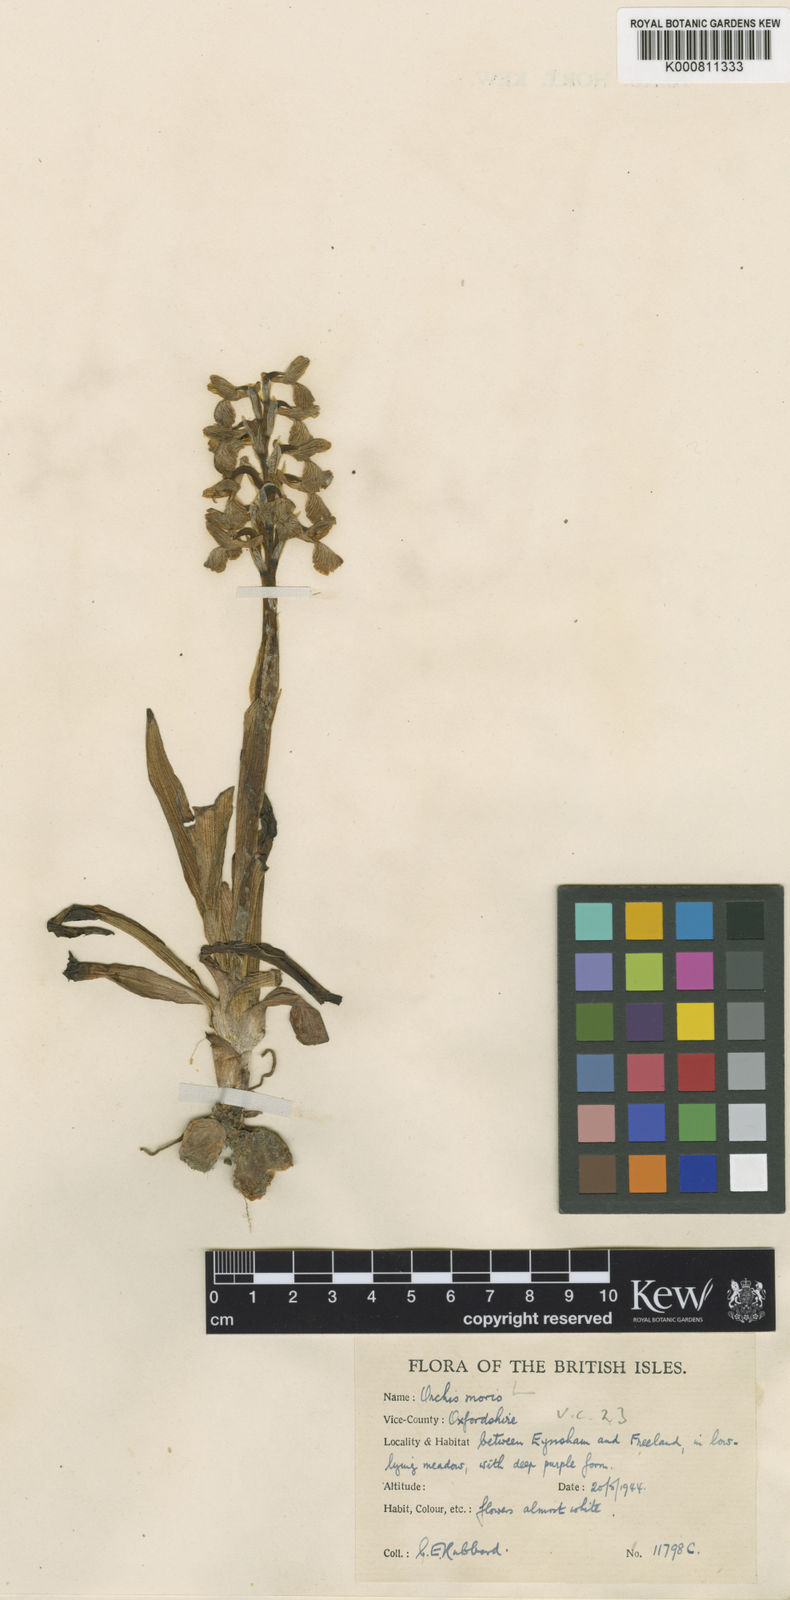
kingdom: Plantae
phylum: Tracheophyta
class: Liliopsida
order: Asparagales
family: Orchidaceae
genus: Anacamptis
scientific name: Anacamptis morio
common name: Green-winged orchid
